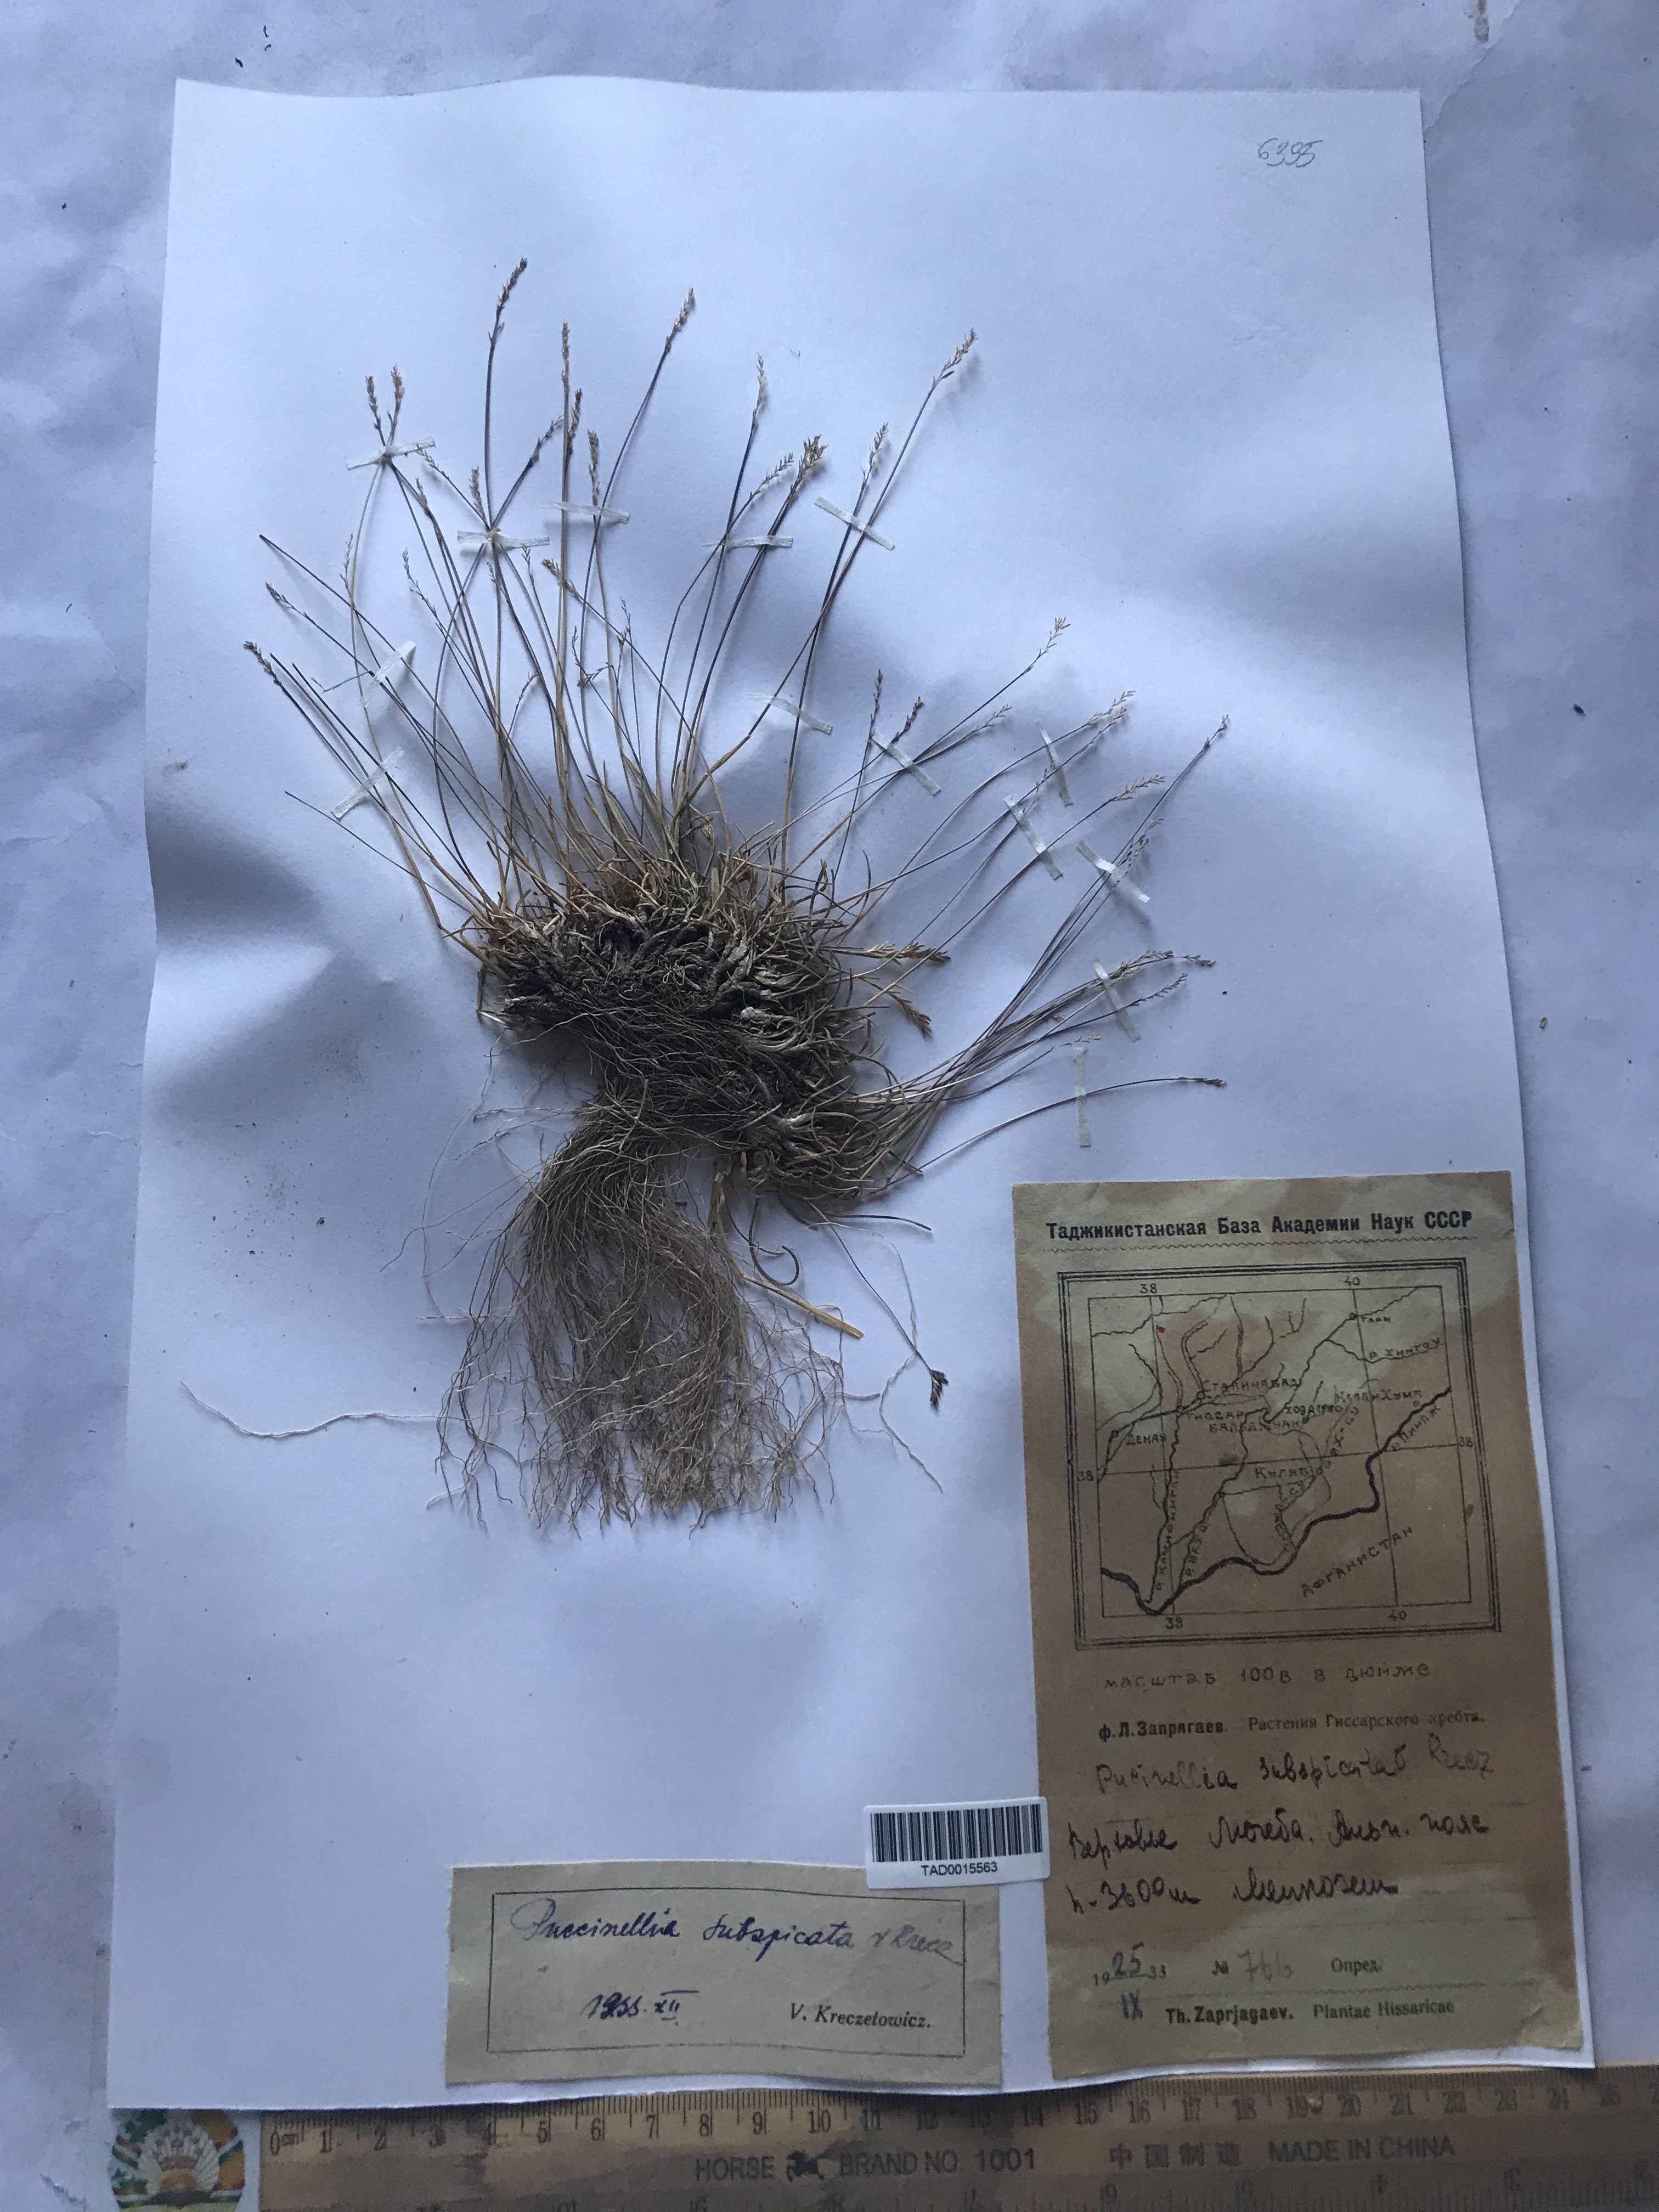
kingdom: Plantae
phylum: Tracheophyta
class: Liliopsida
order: Poales
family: Poaceae
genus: Puccinellia
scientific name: Puccinellia subspicata
